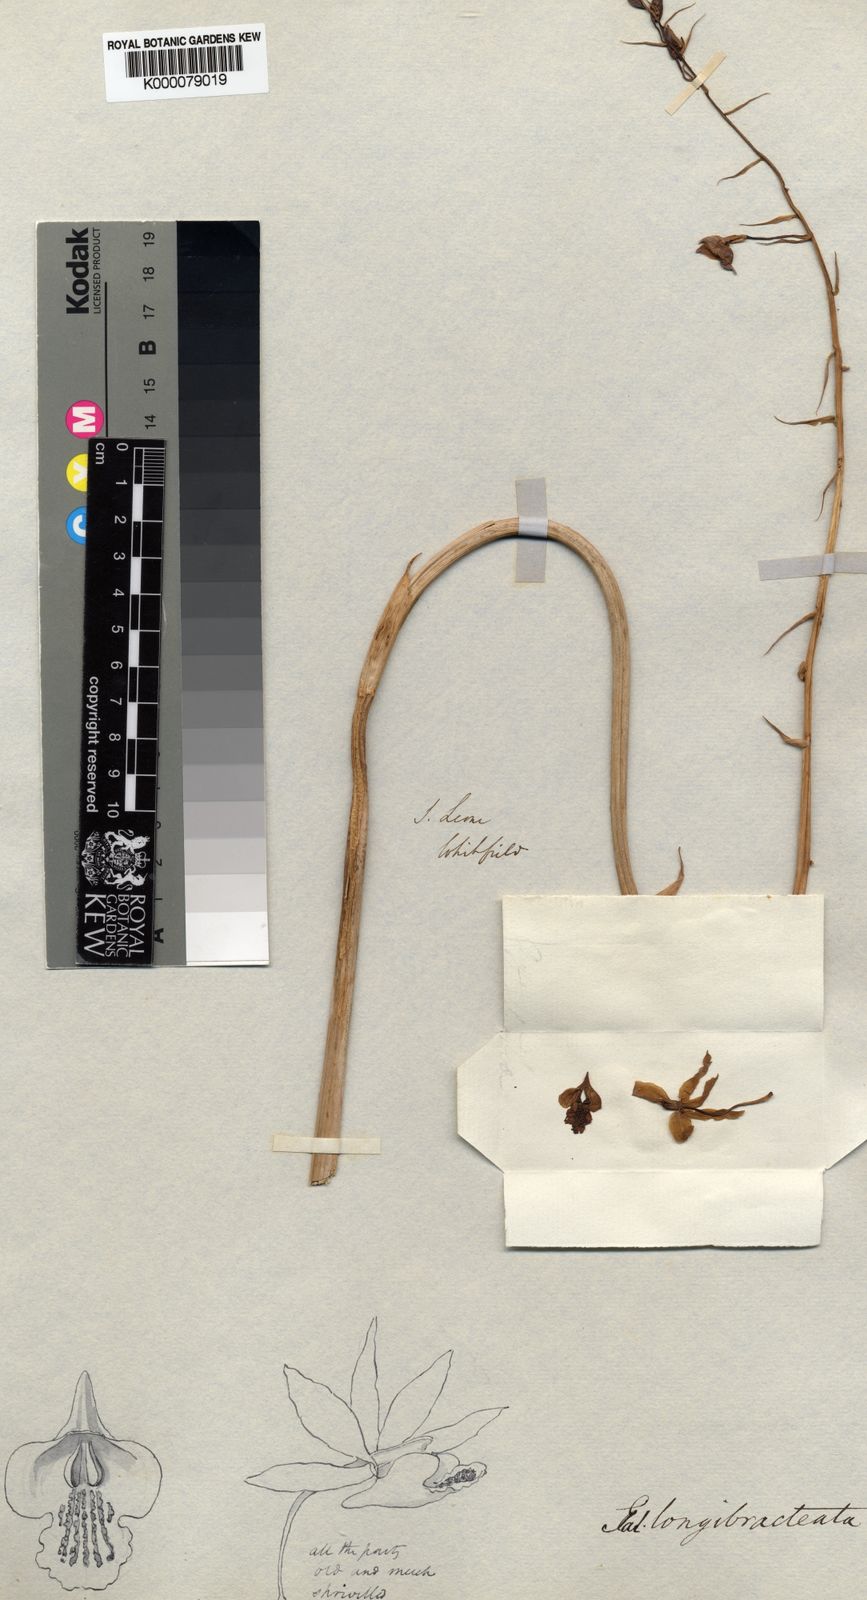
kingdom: Plantae
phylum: Tracheophyta
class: Liliopsida
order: Asparagales
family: Orchidaceae
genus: Eulophia
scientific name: Eulophia cristata
